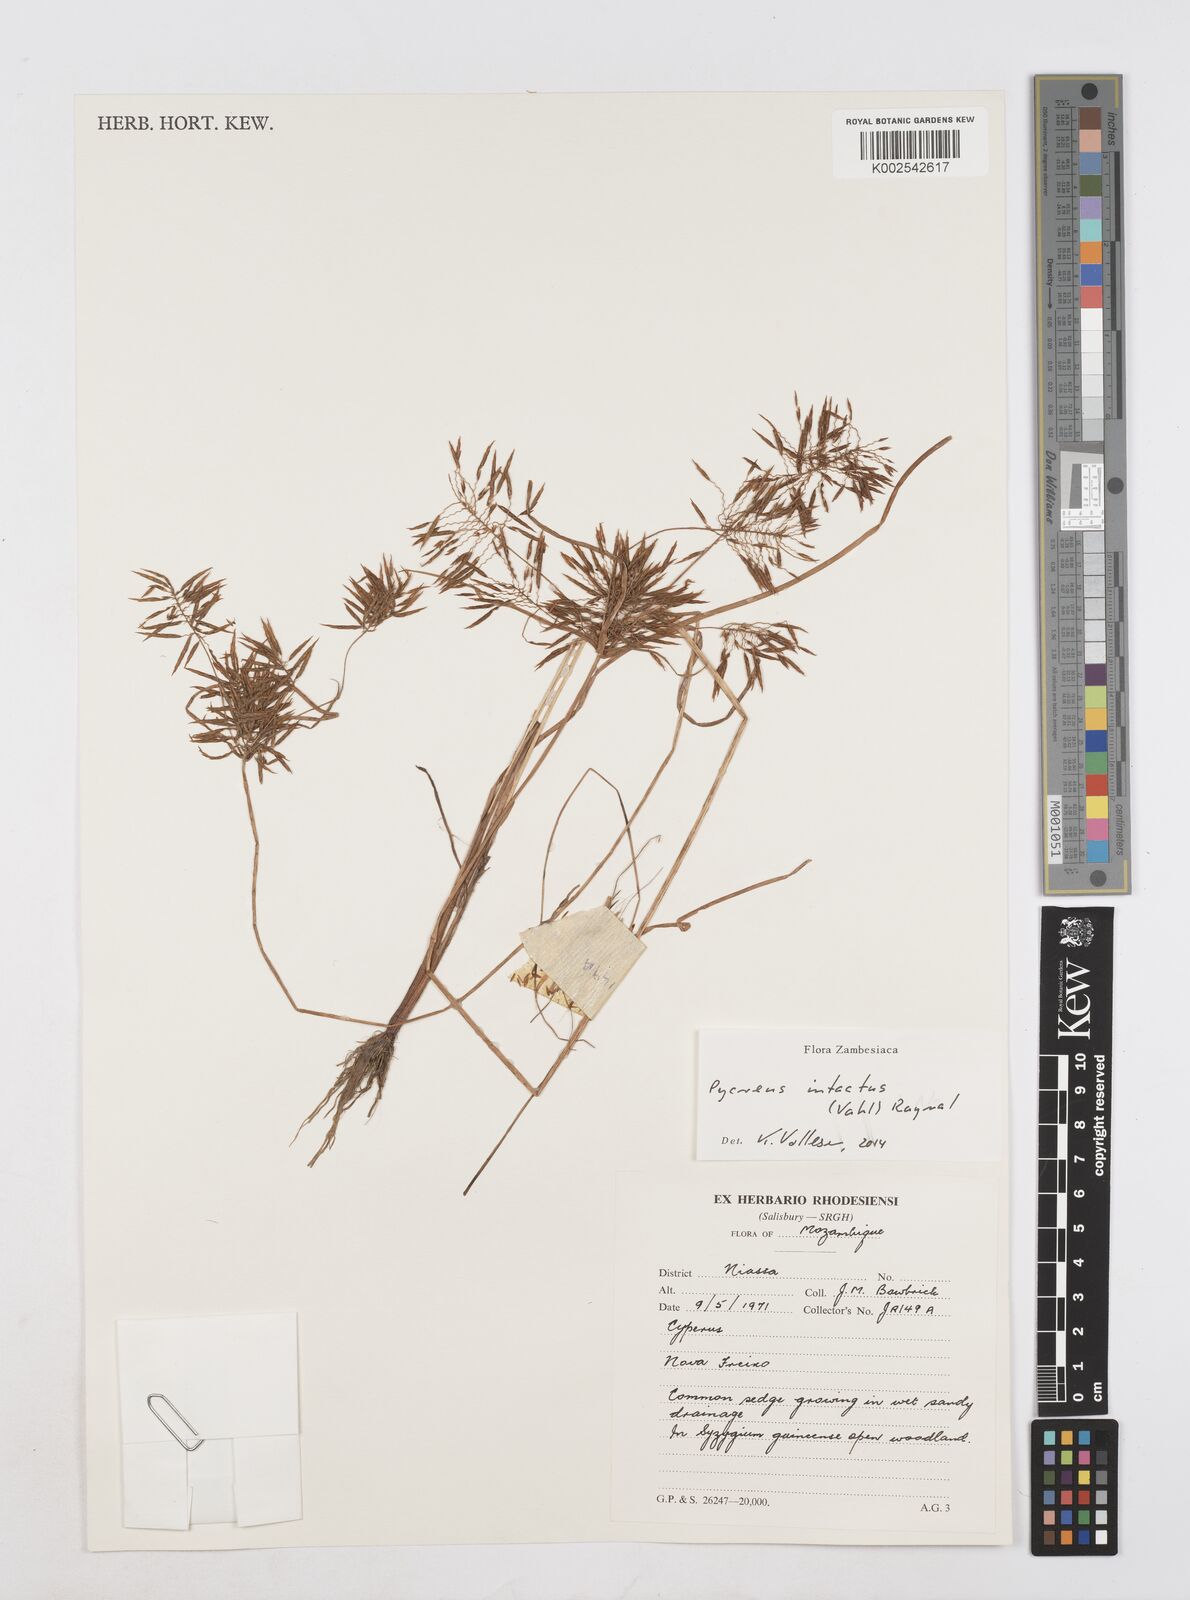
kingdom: Plantae
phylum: Tracheophyta
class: Liliopsida
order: Poales
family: Cyperaceae
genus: Cyperus
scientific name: Cyperus intactus
